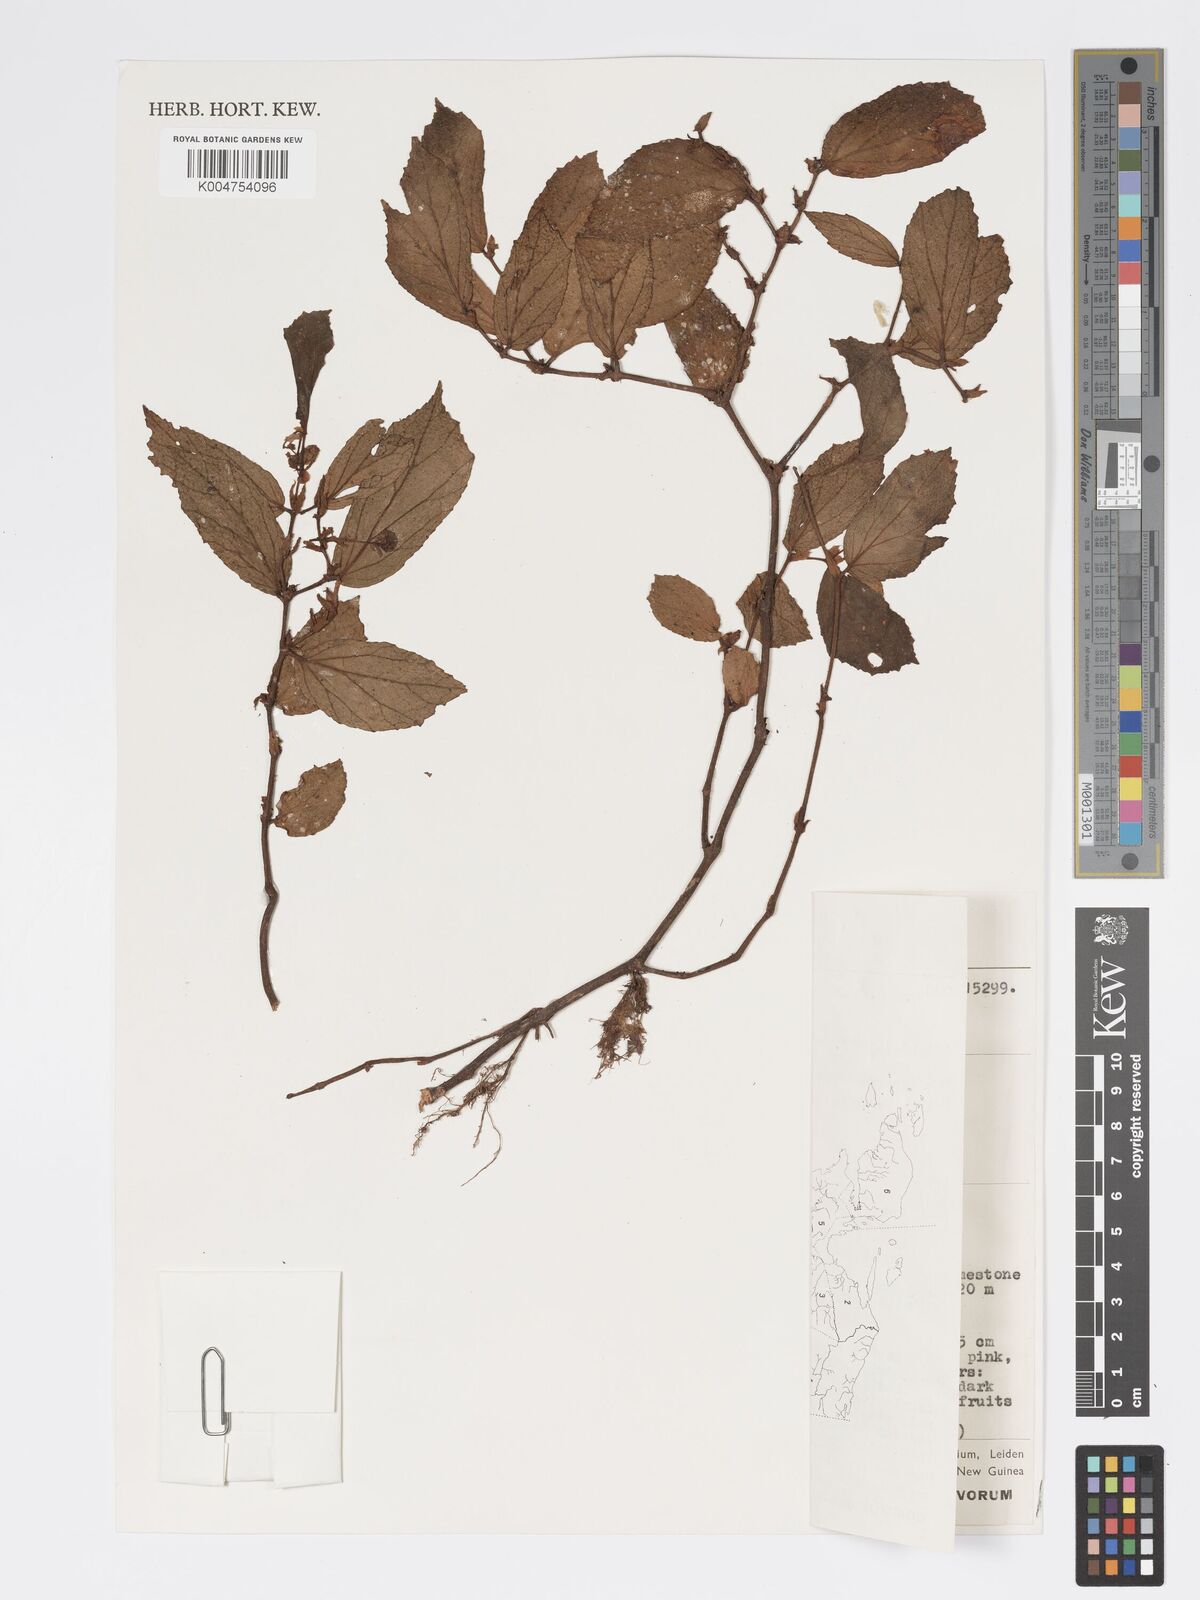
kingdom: Plantae
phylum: Tracheophyta
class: Magnoliopsida
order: Cucurbitales
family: Begoniaceae
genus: Begonia
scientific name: Begonia
